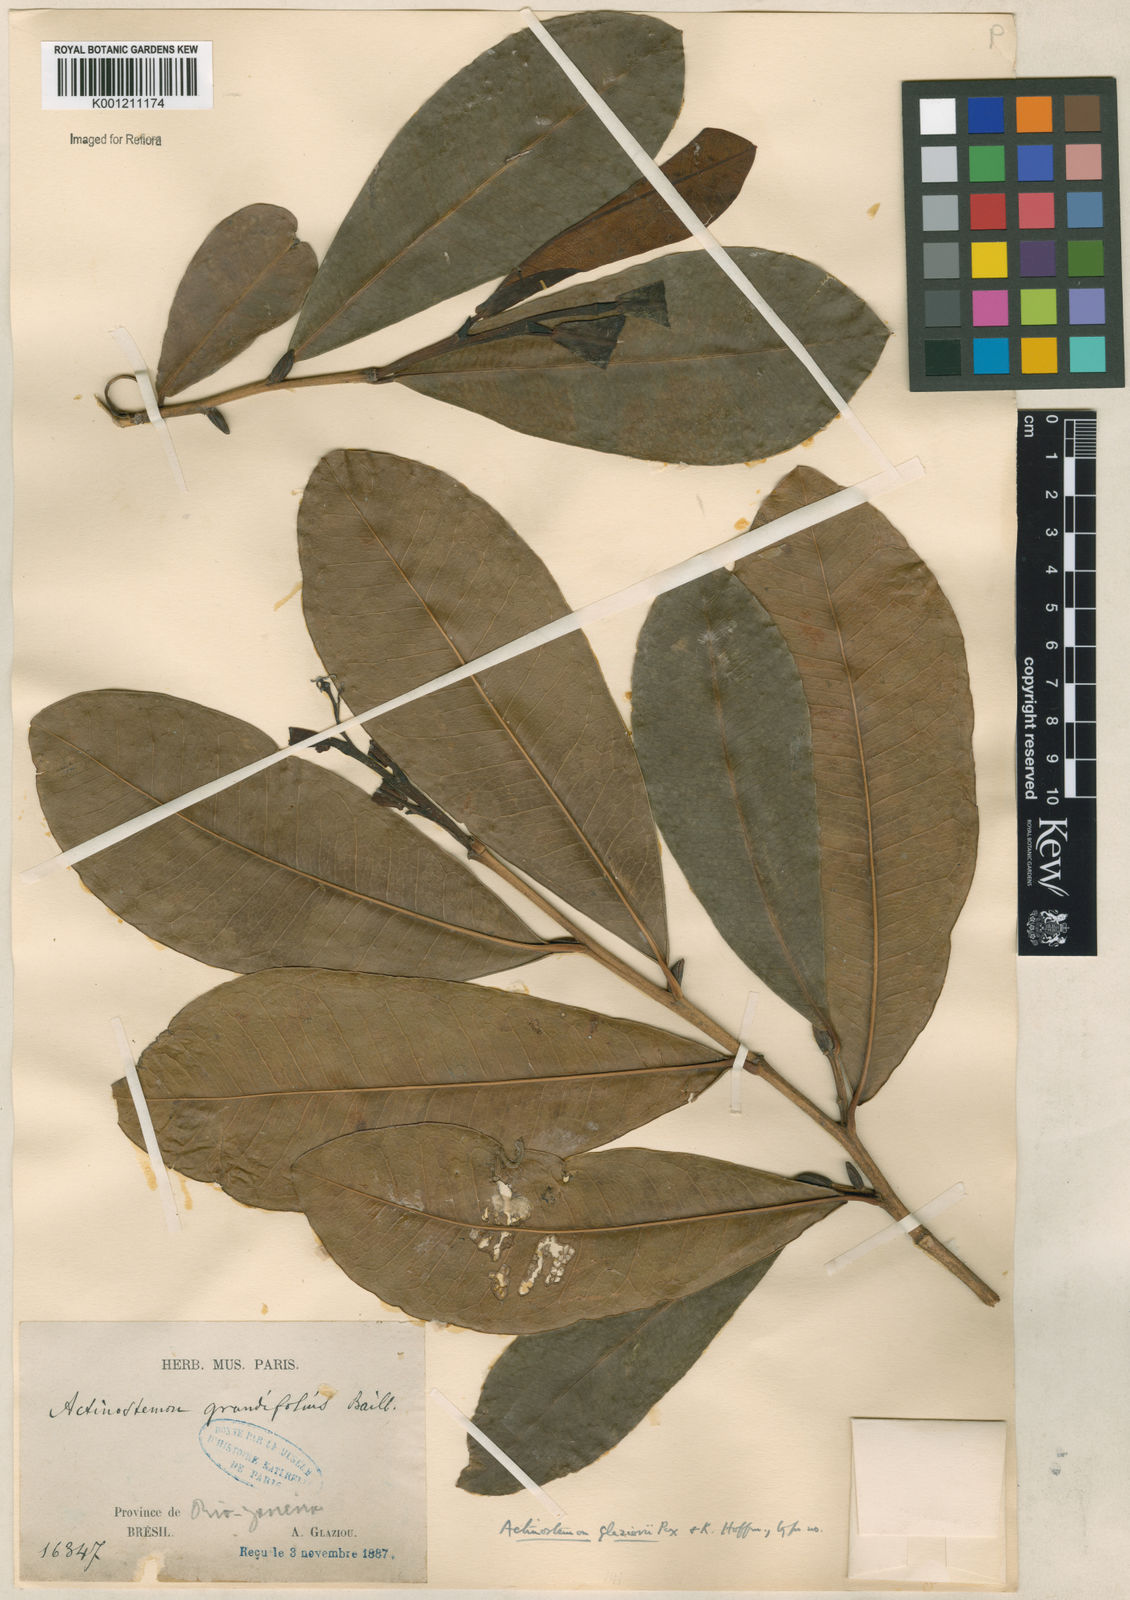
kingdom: Plantae
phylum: Tracheophyta
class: Magnoliopsida
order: Malpighiales
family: Euphorbiaceae
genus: Actinostemon
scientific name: Actinostemon glaziovii
